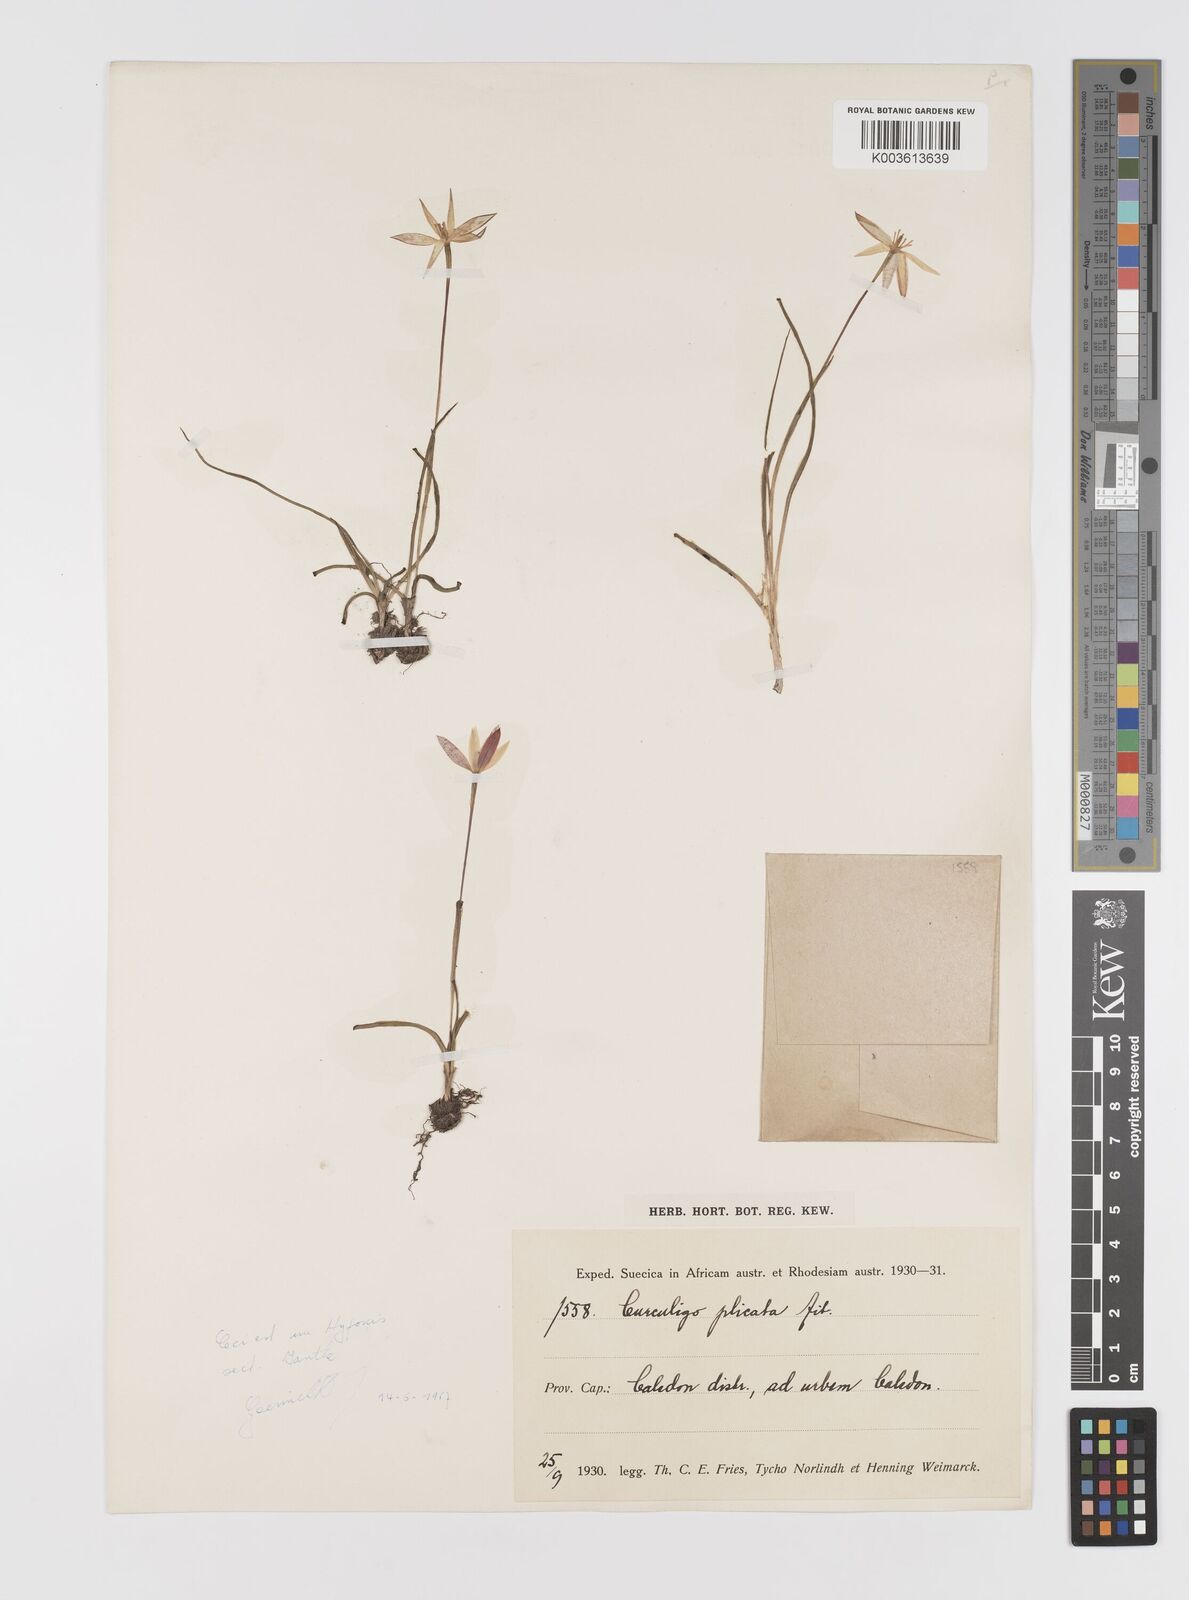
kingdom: Plantae
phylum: Tracheophyta
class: Liliopsida
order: Asparagales
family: Hypoxidaceae
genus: Pauridia
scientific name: Pauridia
